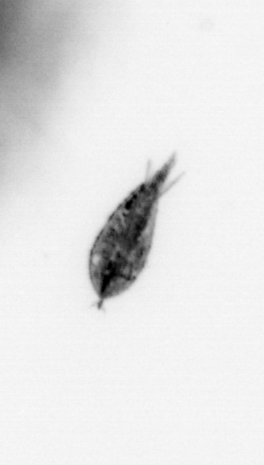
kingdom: Animalia
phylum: Arthropoda
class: Maxillopoda
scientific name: Maxillopoda
